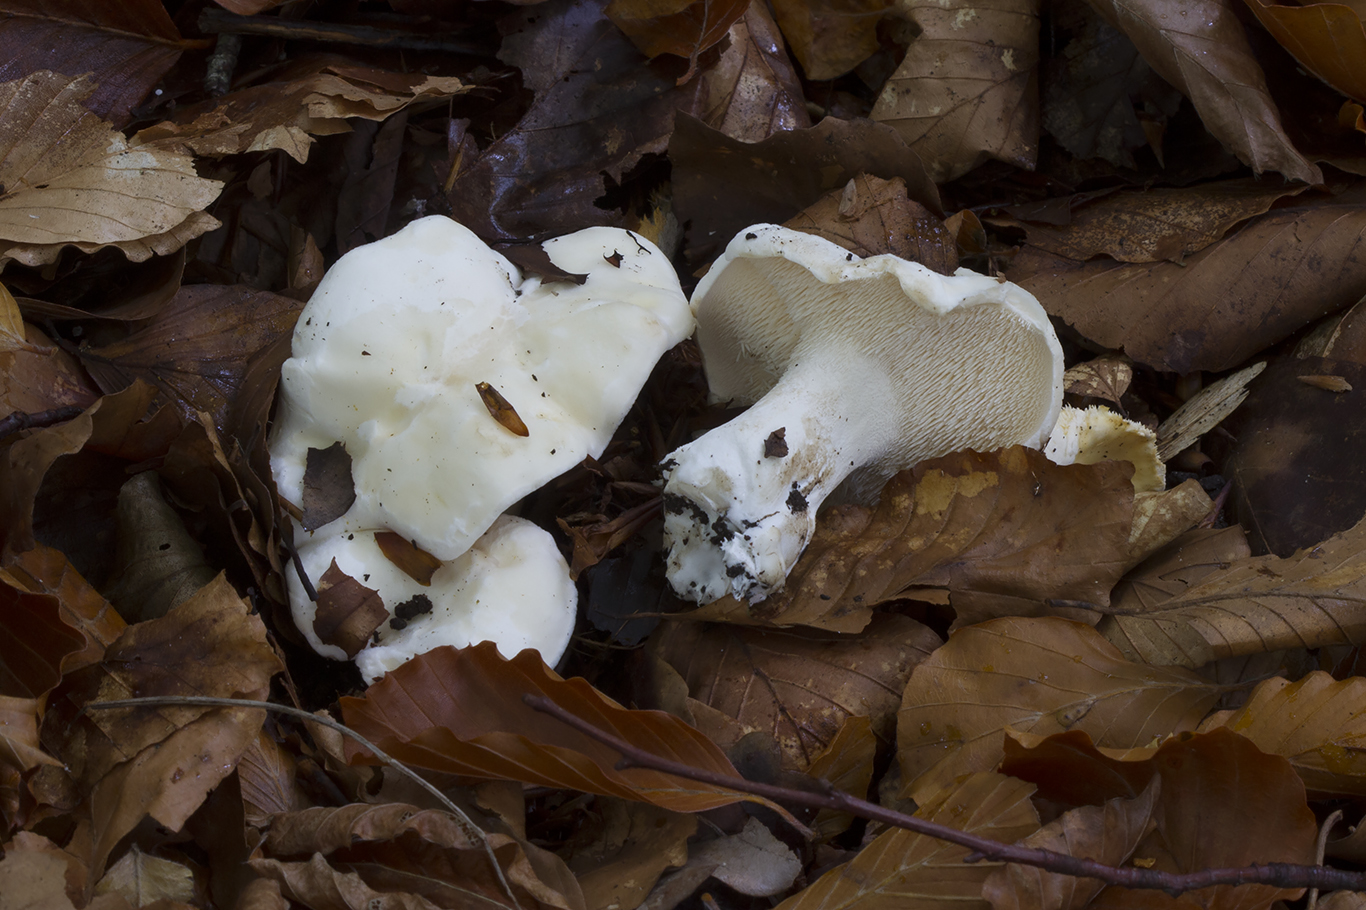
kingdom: Fungi
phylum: Basidiomycota
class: Agaricomycetes
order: Cantharellales
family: Hydnaceae
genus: Hydnum
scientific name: Hydnum repandum
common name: hvid pigsvamp
